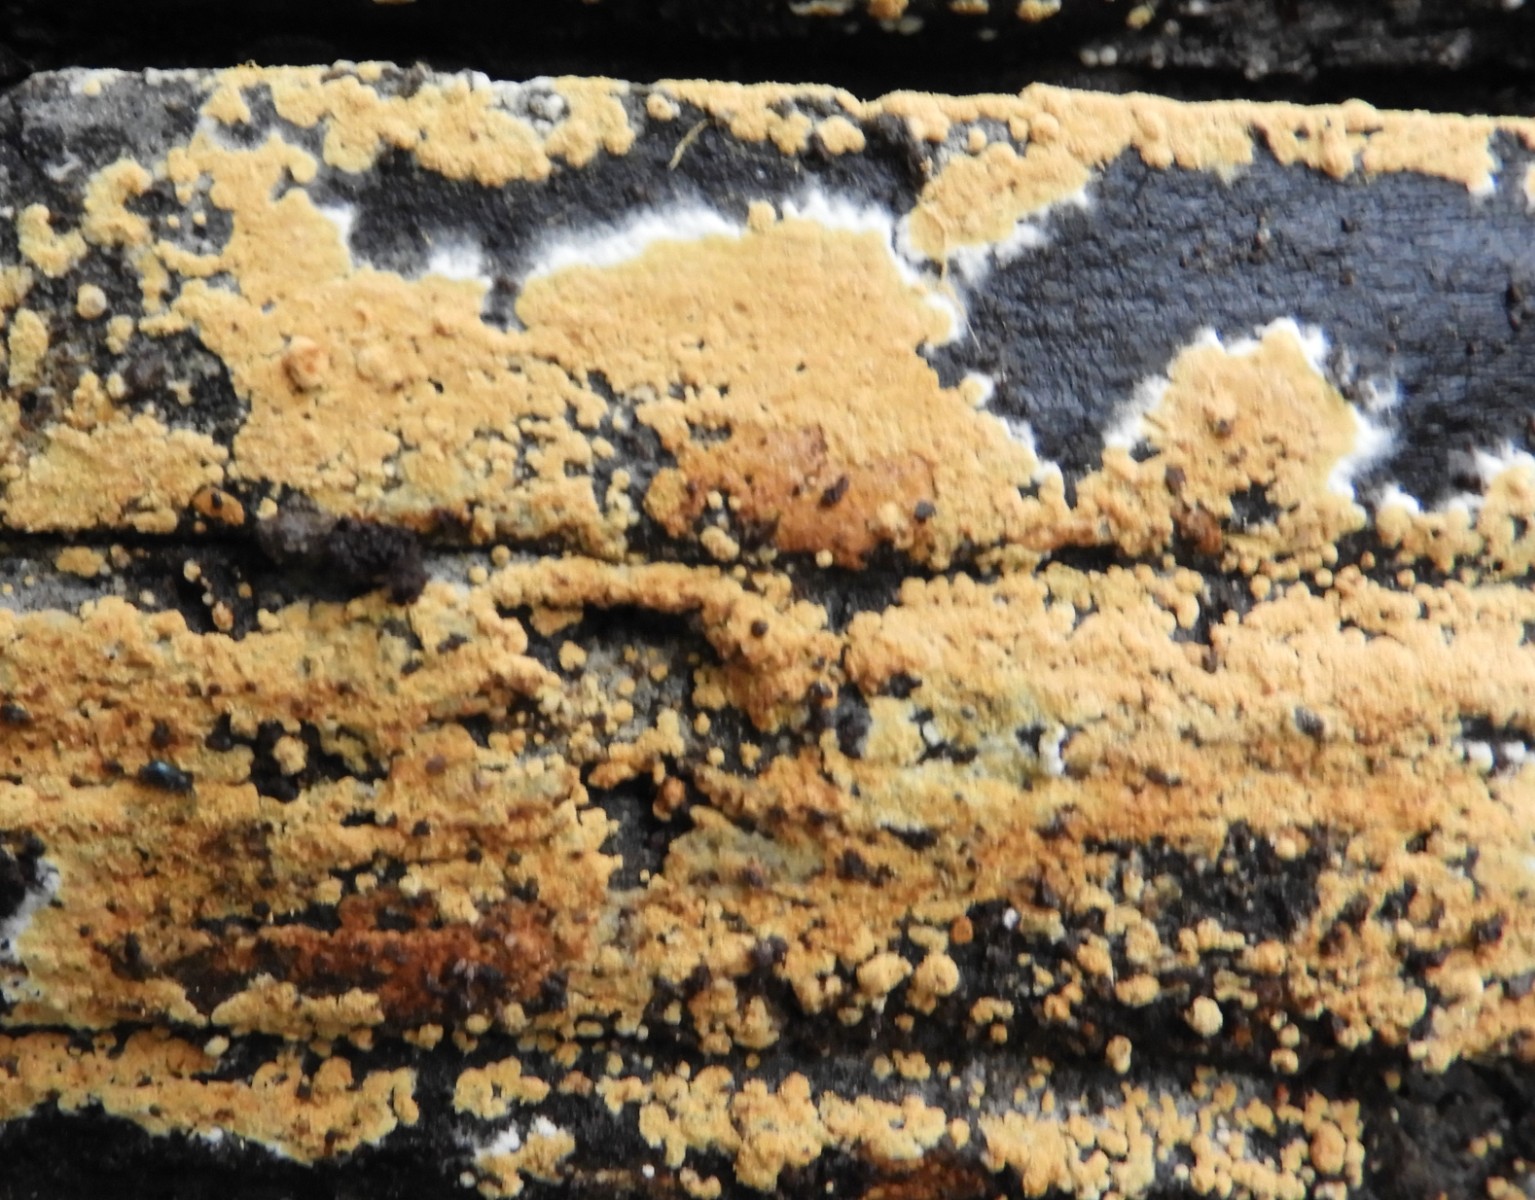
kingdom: Fungi
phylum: Basidiomycota
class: Agaricomycetes
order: Cantharellales
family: Botryobasidiaceae
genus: Botryobasidium
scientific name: Botryobasidium aureum
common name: gylden spindhinde
